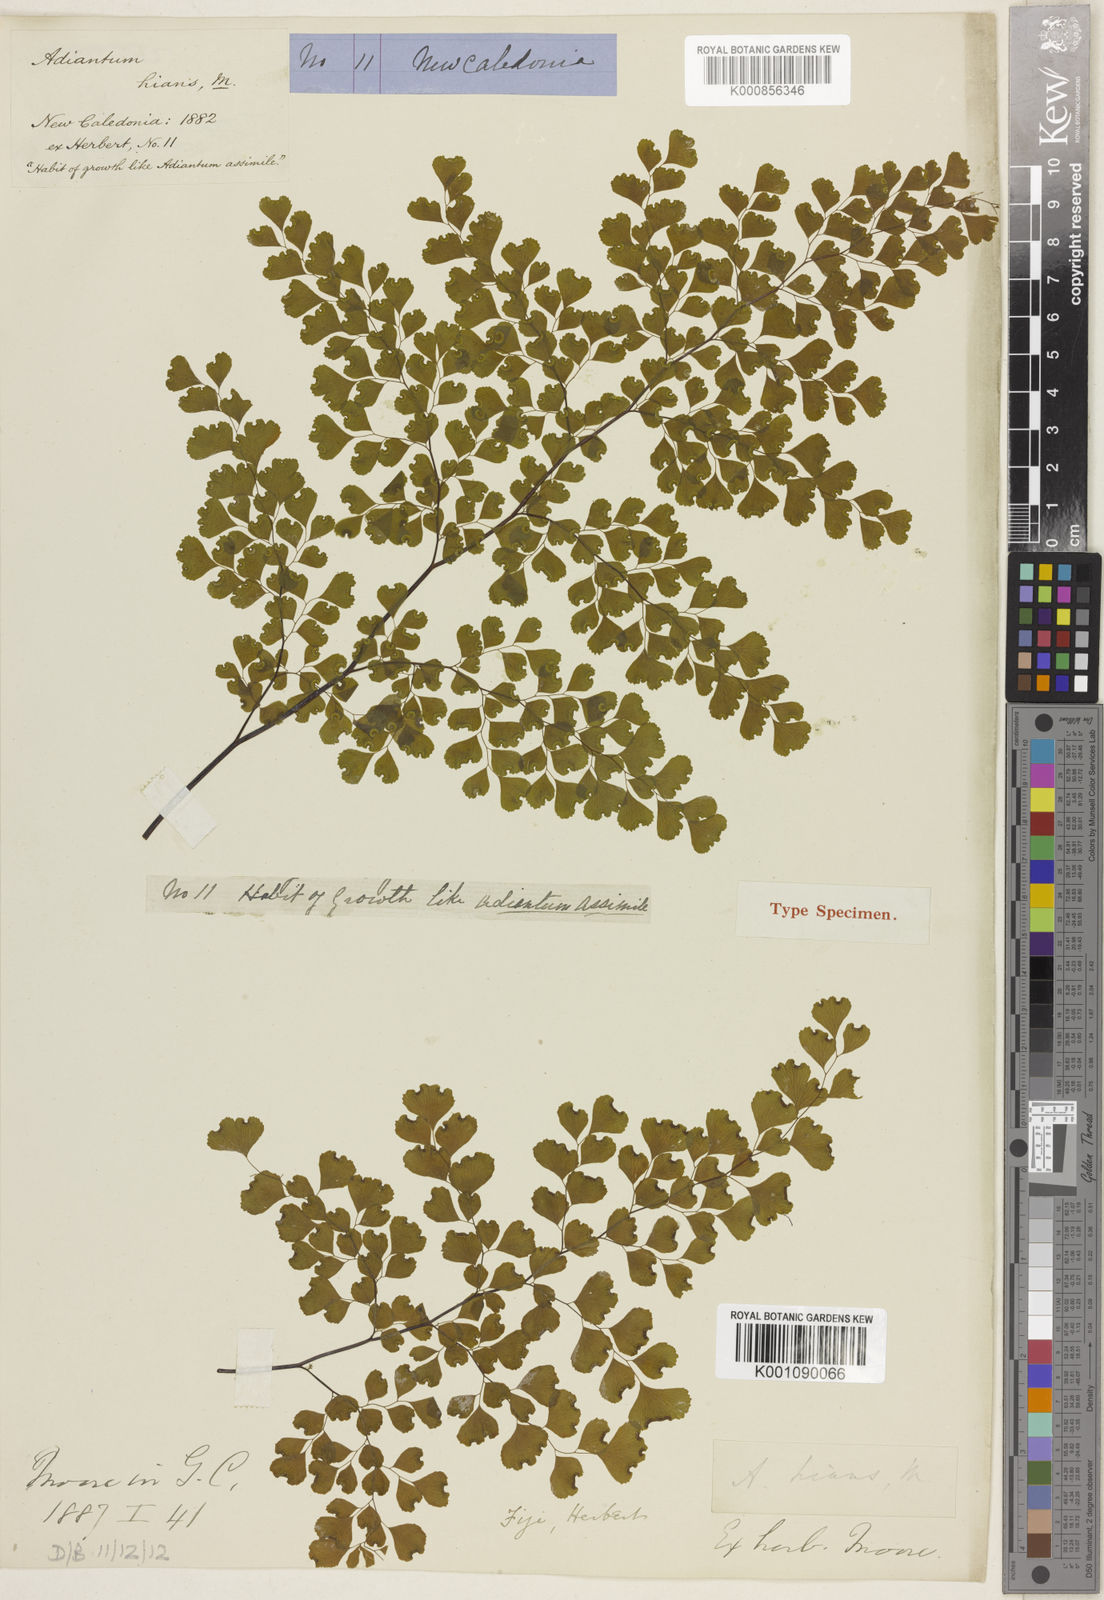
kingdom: Plantae
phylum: Tracheophyta
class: Polypodiopsida
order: Polypodiales
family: Pteridaceae
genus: Adiantum
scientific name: Adiantum hians
